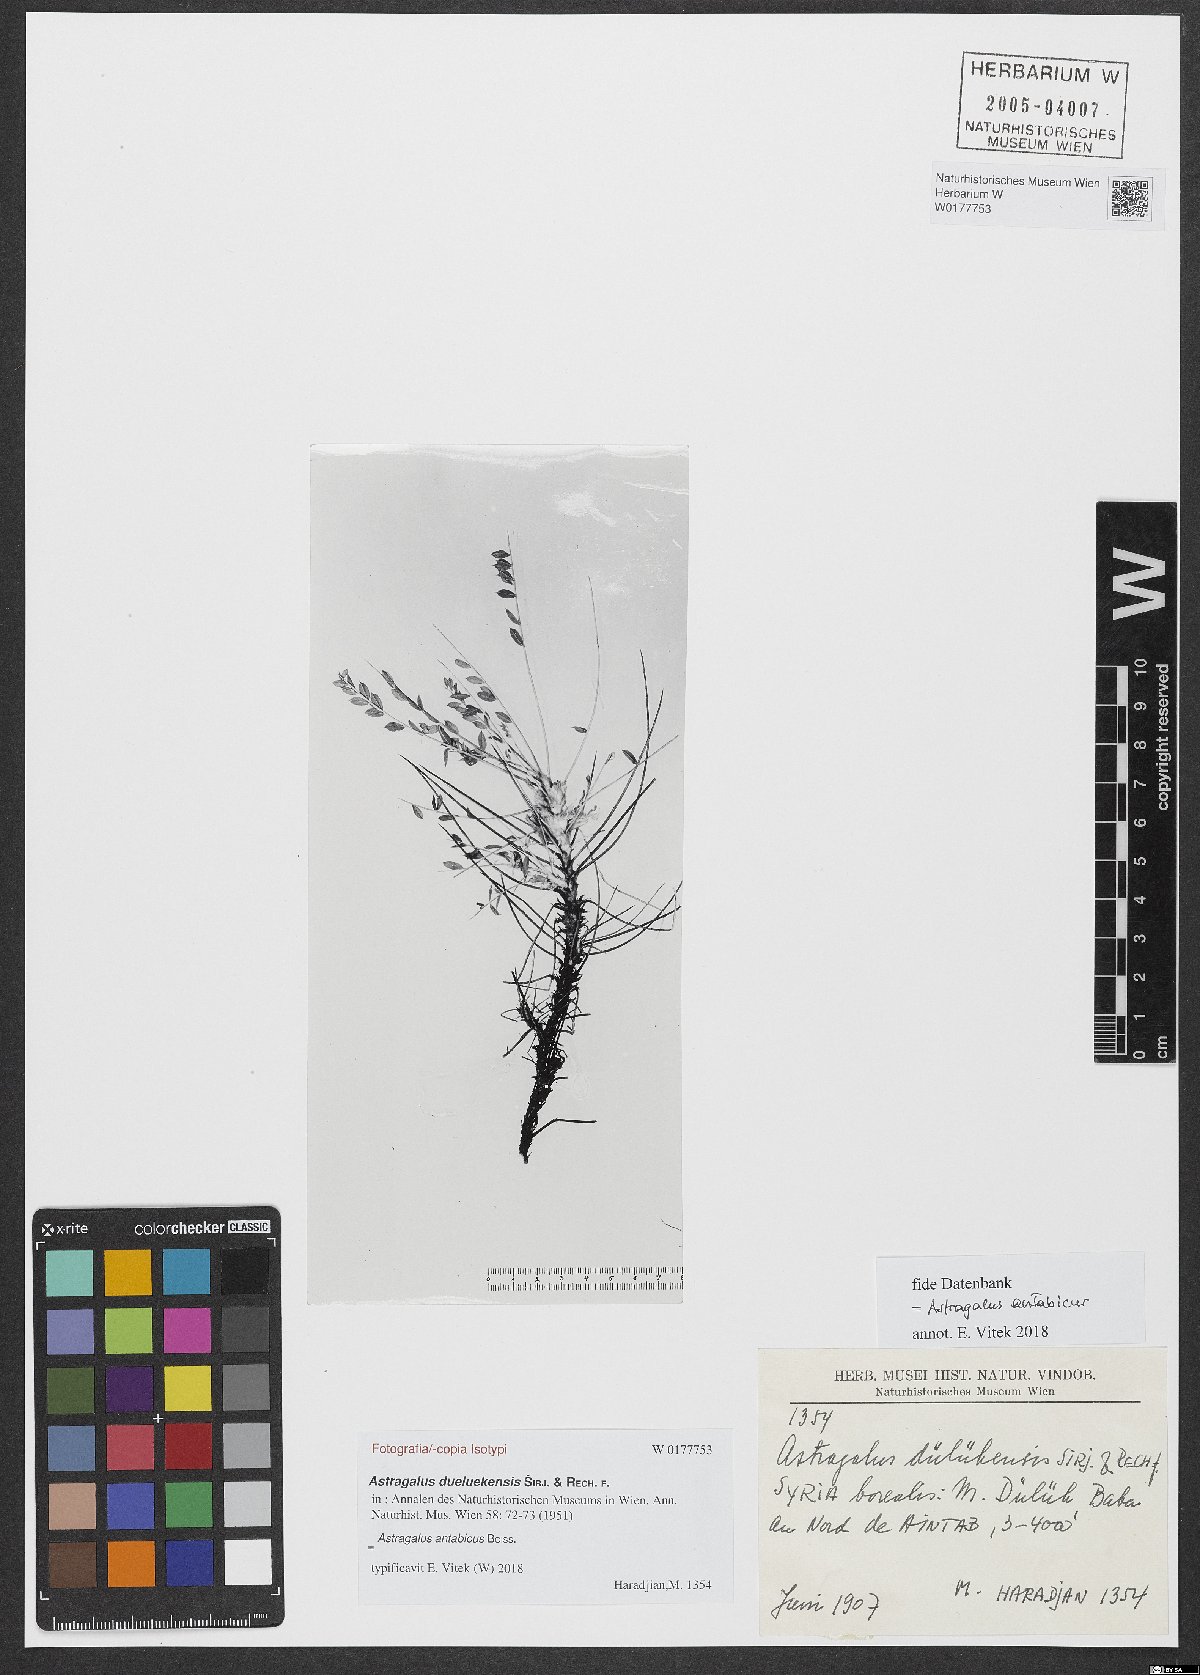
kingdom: Plantae
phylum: Tracheophyta
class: Magnoliopsida
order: Fabales
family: Fabaceae
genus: Astragalus
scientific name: Astragalus antabicus
